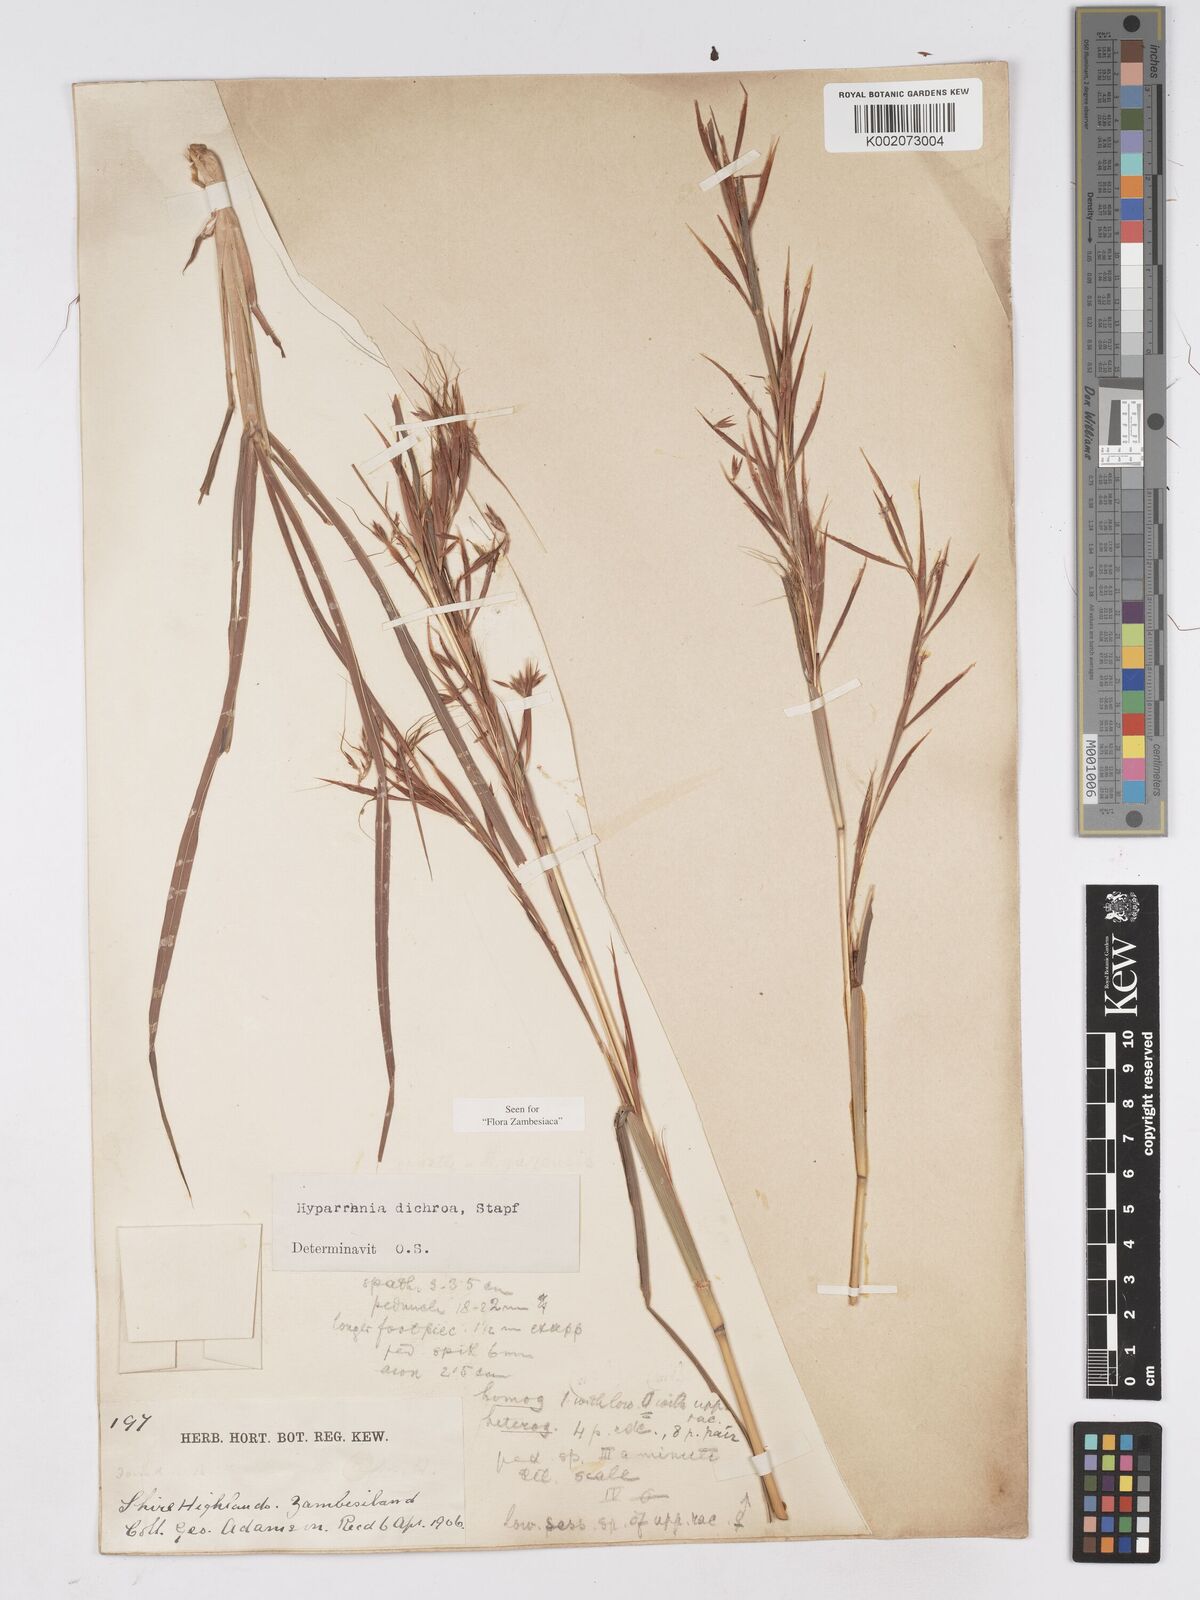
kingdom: Plantae
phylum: Tracheophyta
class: Liliopsida
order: Poales
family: Poaceae
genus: Hyparrhenia
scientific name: Hyparrhenia dichroa
